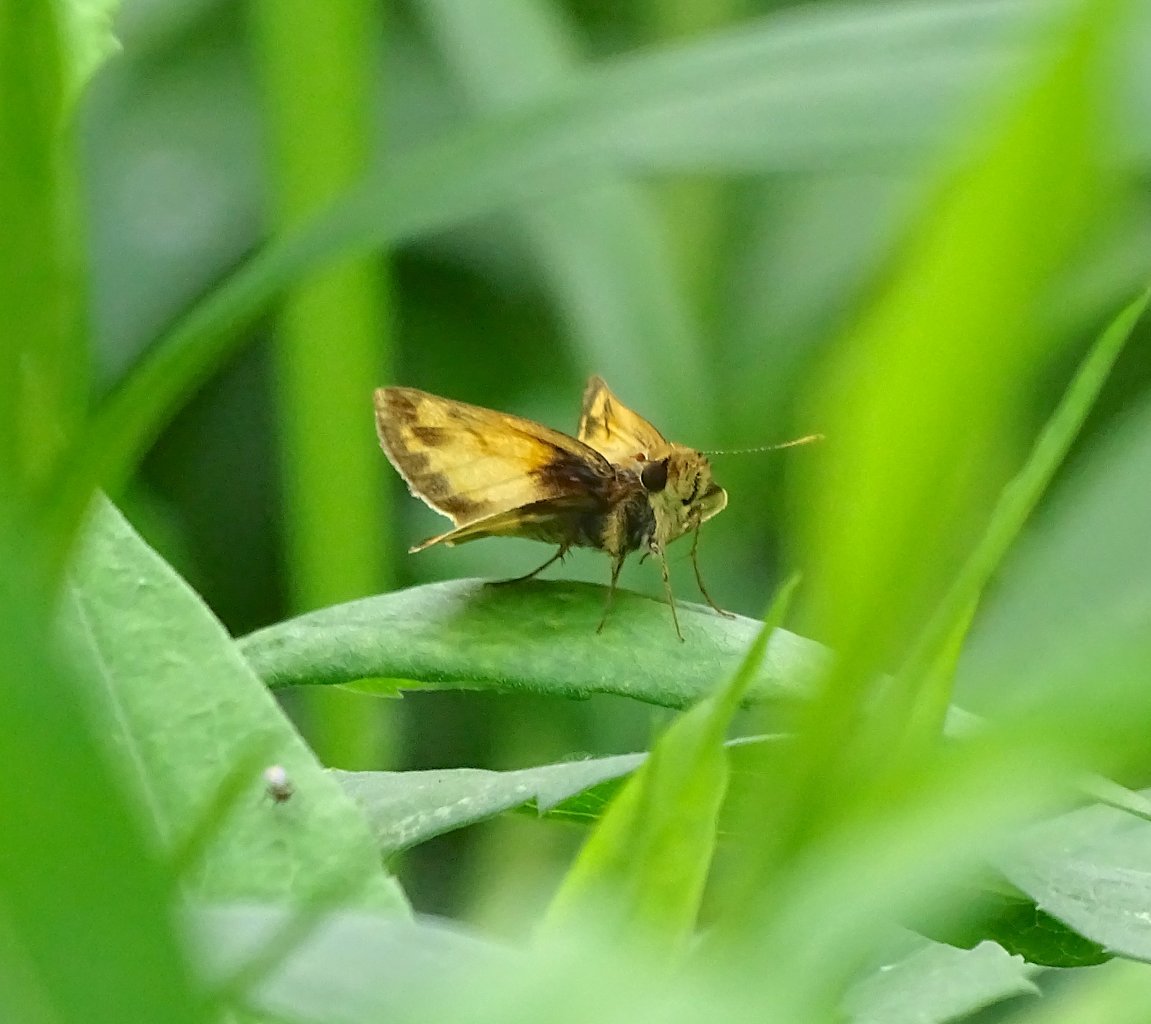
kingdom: Animalia
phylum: Arthropoda
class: Insecta
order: Lepidoptera
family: Hesperiidae
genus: Lon
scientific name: Lon zabulon
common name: Zabulon Skipper
